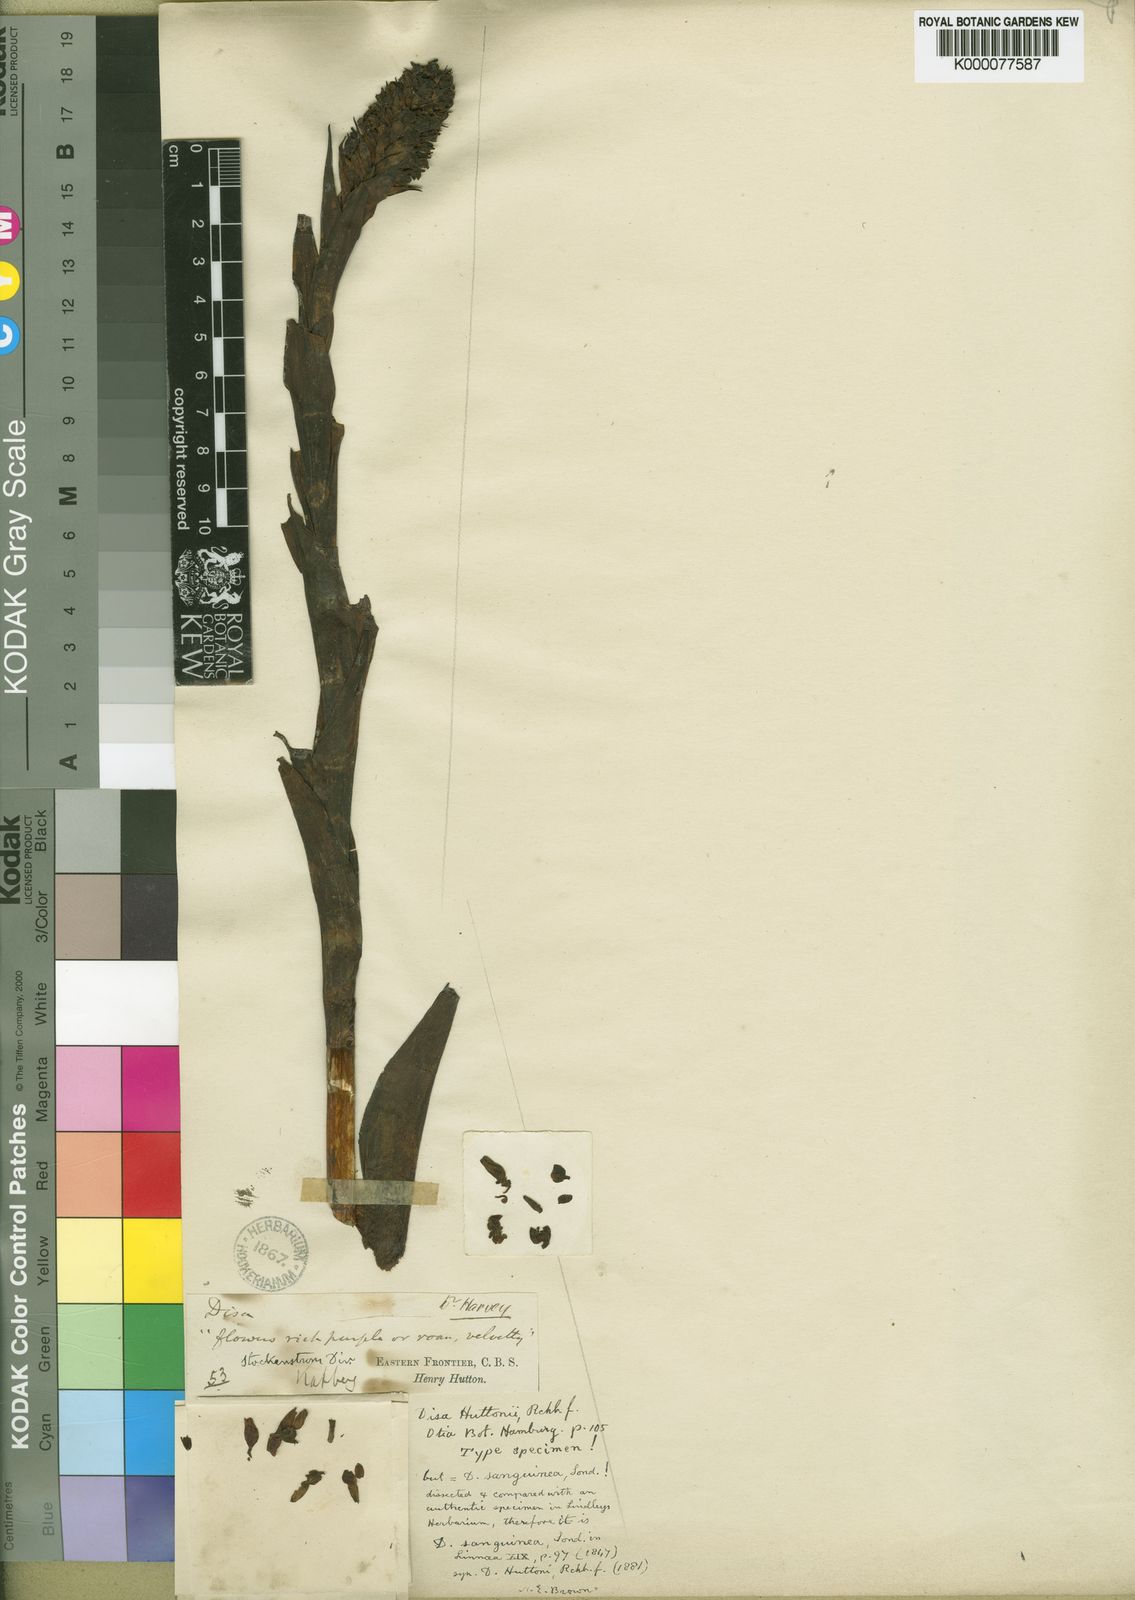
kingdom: Plantae
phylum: Tracheophyta
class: Liliopsida
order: Asparagales
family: Orchidaceae
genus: Disa
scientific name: Disa sanguinea
